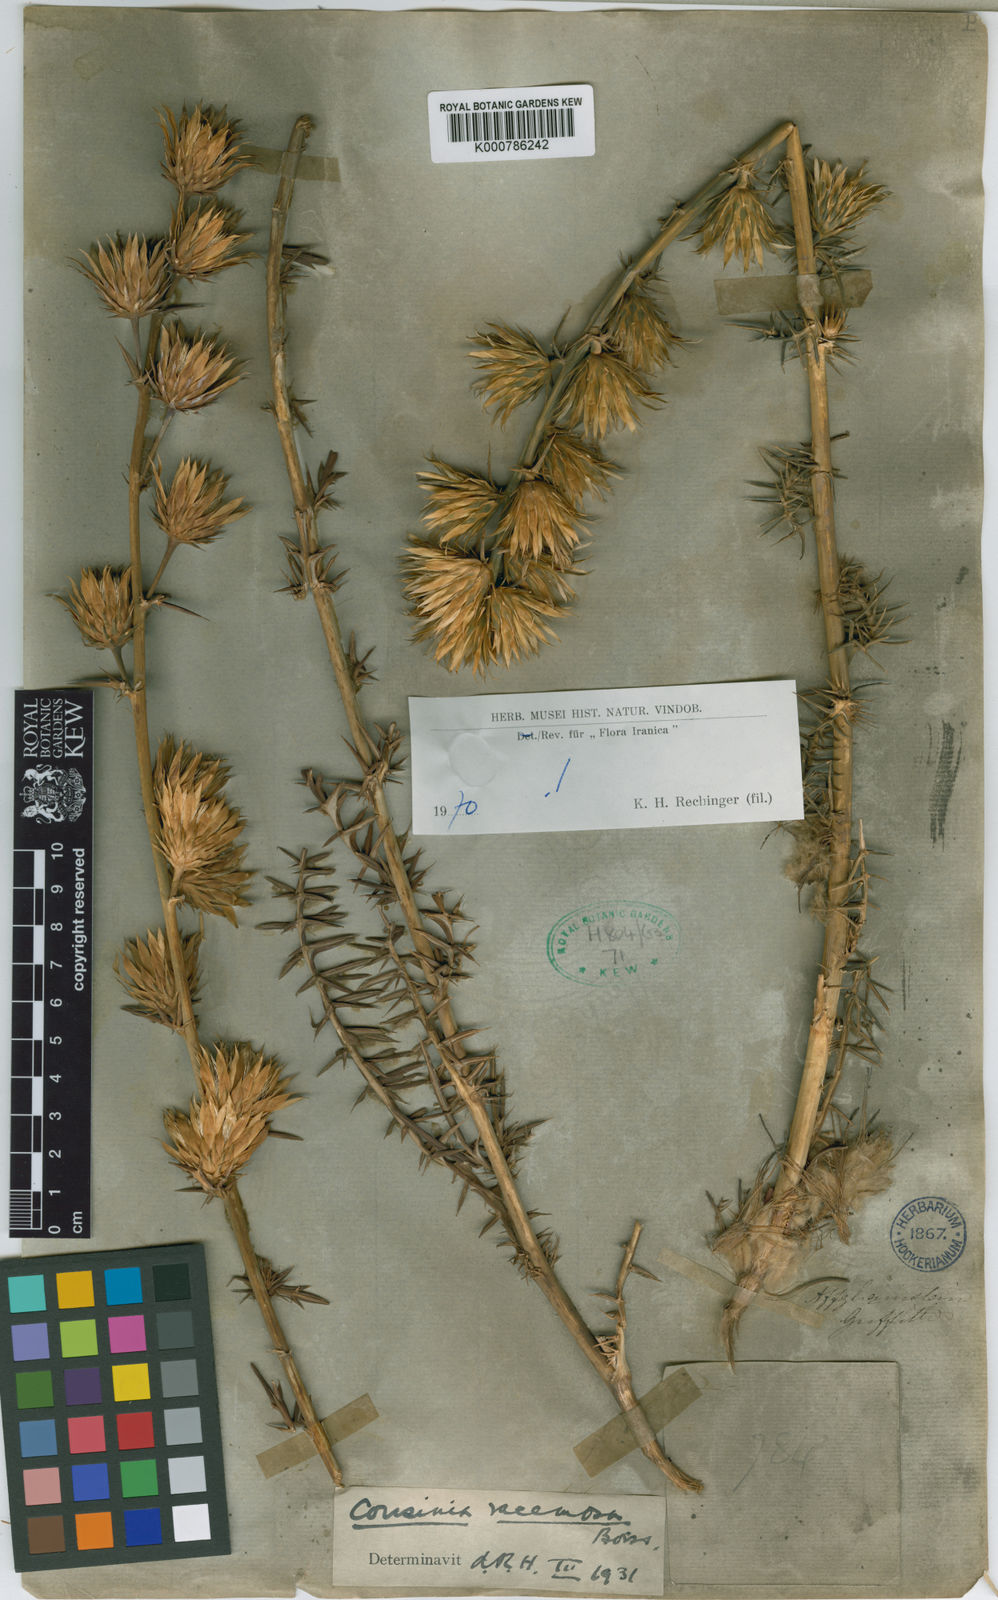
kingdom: Plantae
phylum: Tracheophyta
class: Magnoliopsida
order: Asterales
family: Asteraceae
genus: Cousinia
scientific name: Cousinia racemosa
